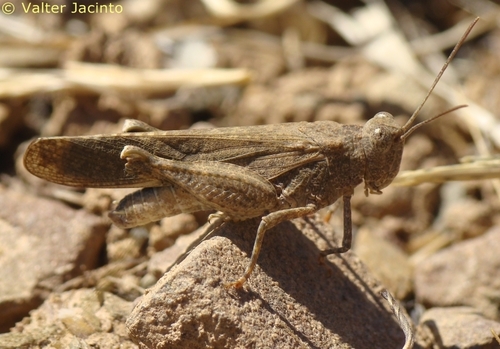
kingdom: Animalia
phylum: Arthropoda
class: Insecta
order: Orthoptera
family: Acrididae
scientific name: Acrididae
